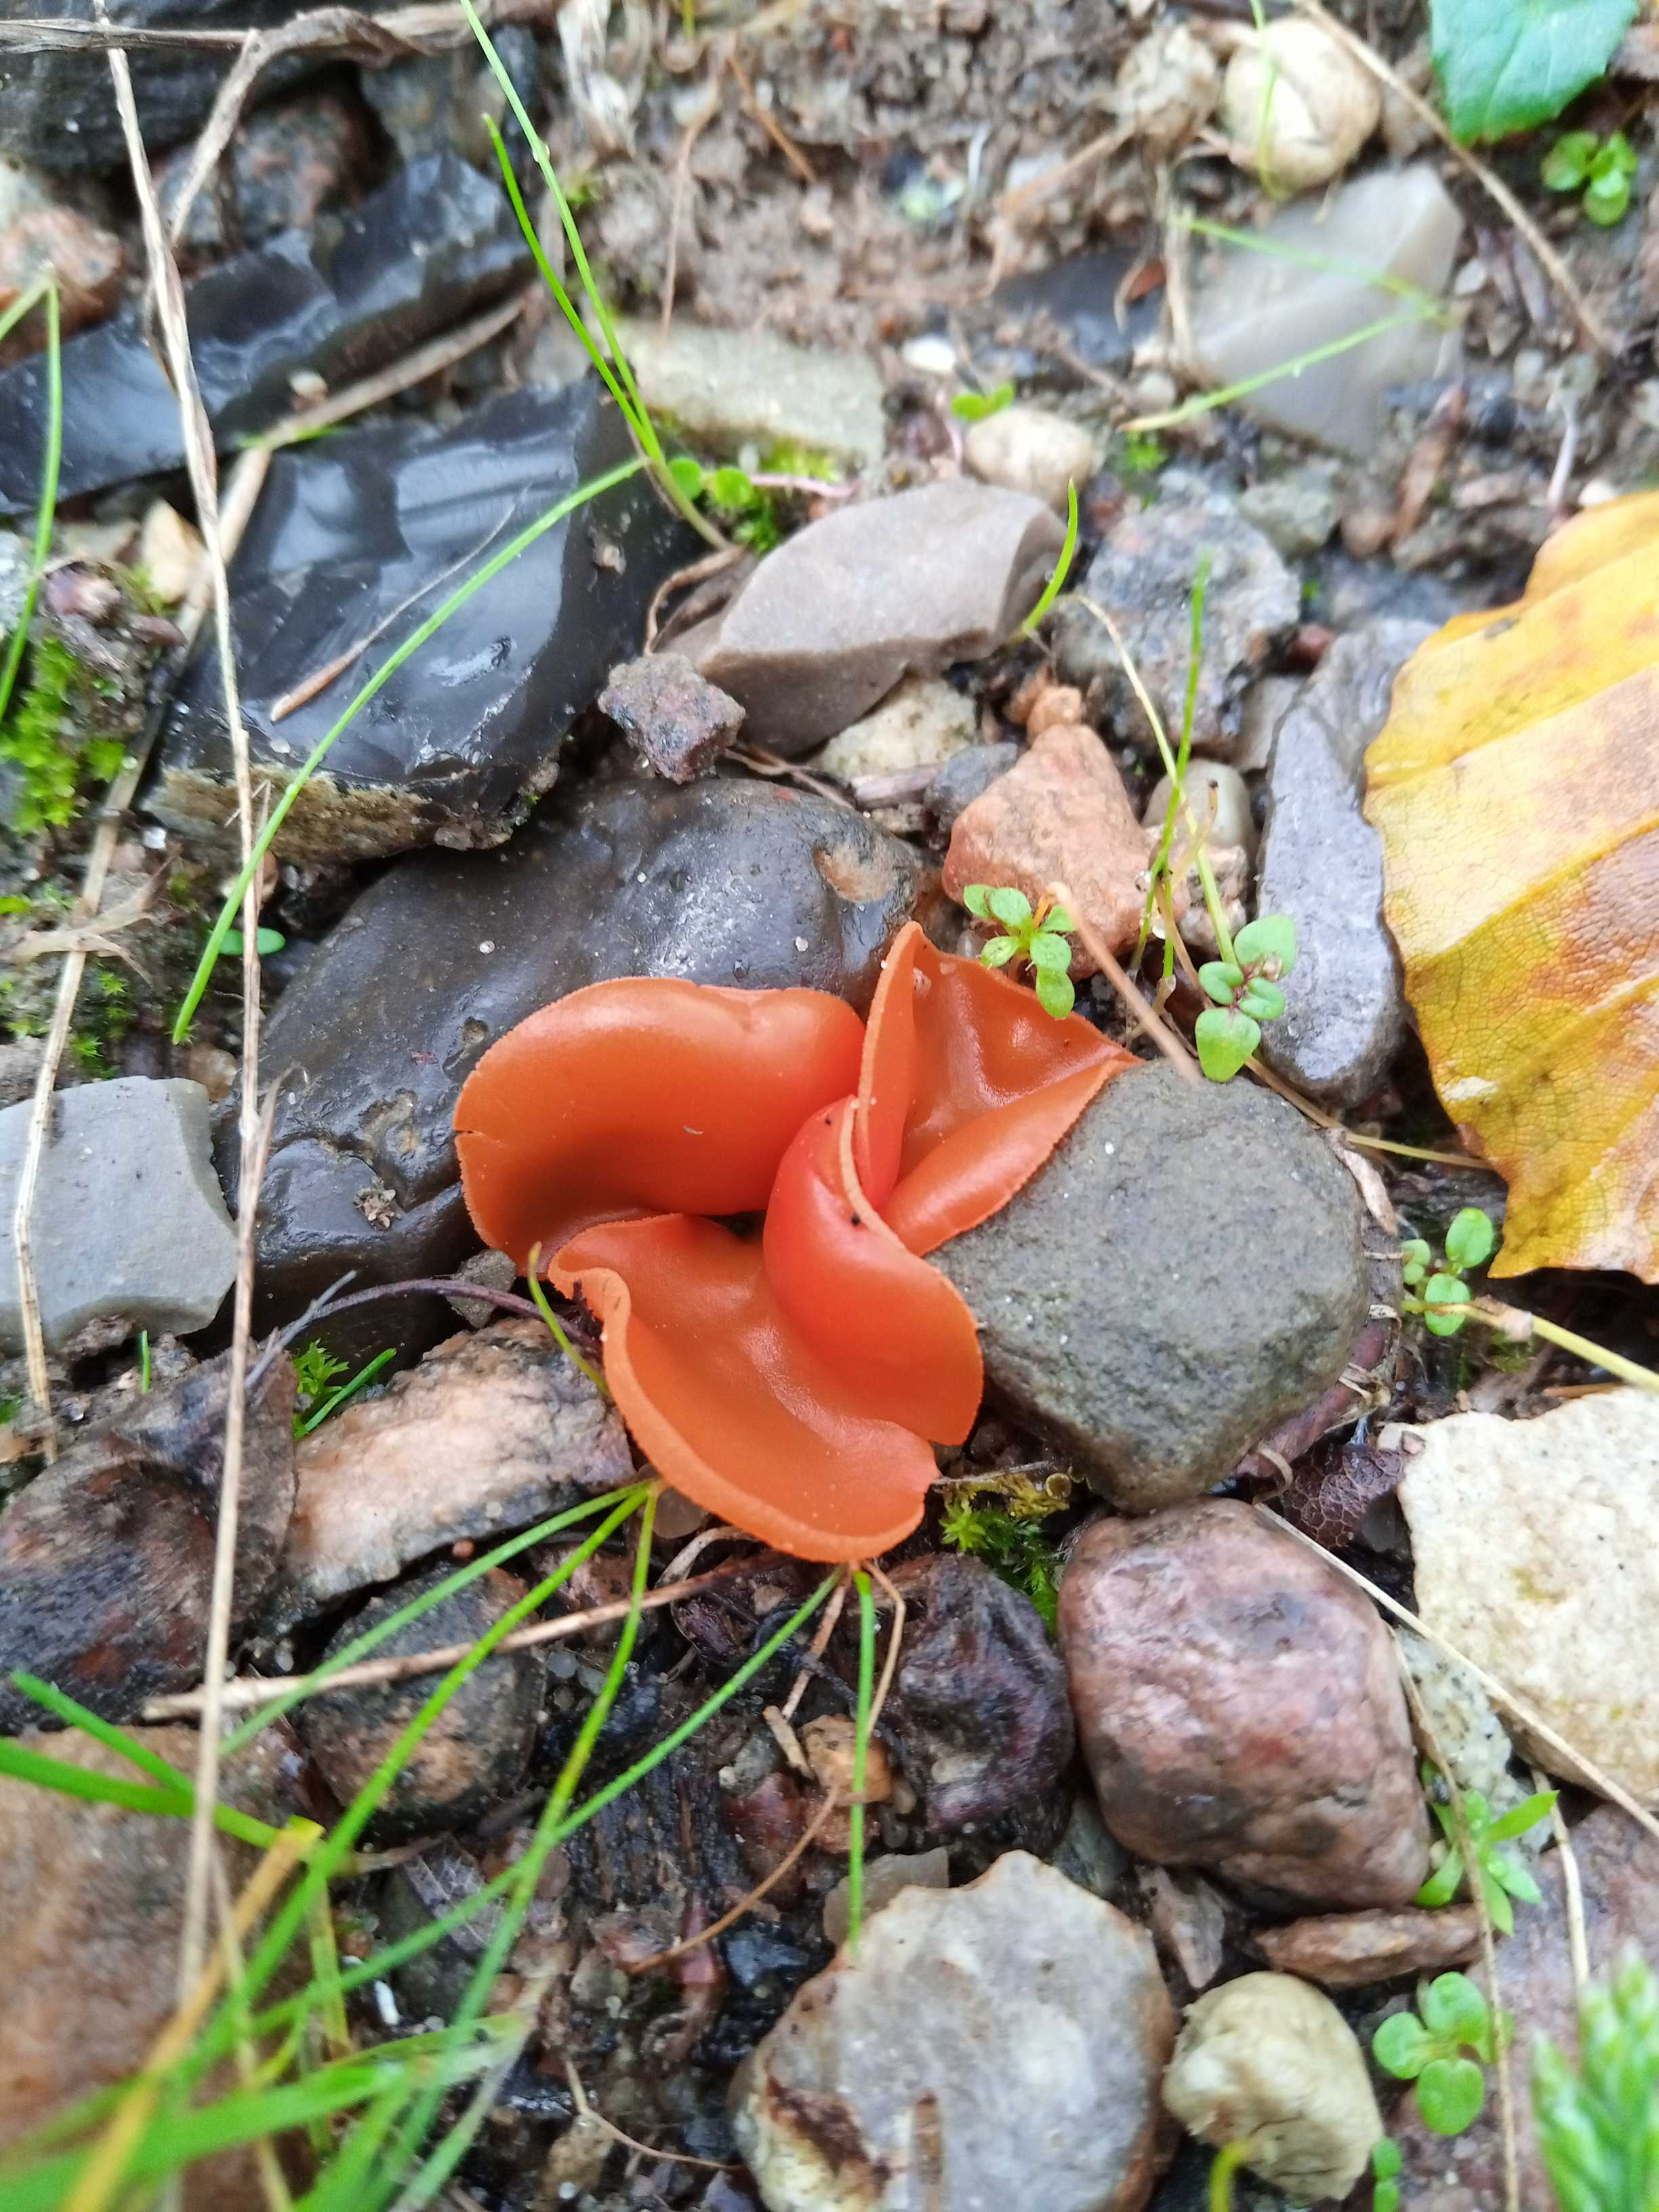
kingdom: Fungi
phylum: Ascomycota
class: Pezizomycetes
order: Pezizales
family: Pyronemataceae
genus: Aleuria
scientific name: Aleuria aurantia
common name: almindelig orangebæger
